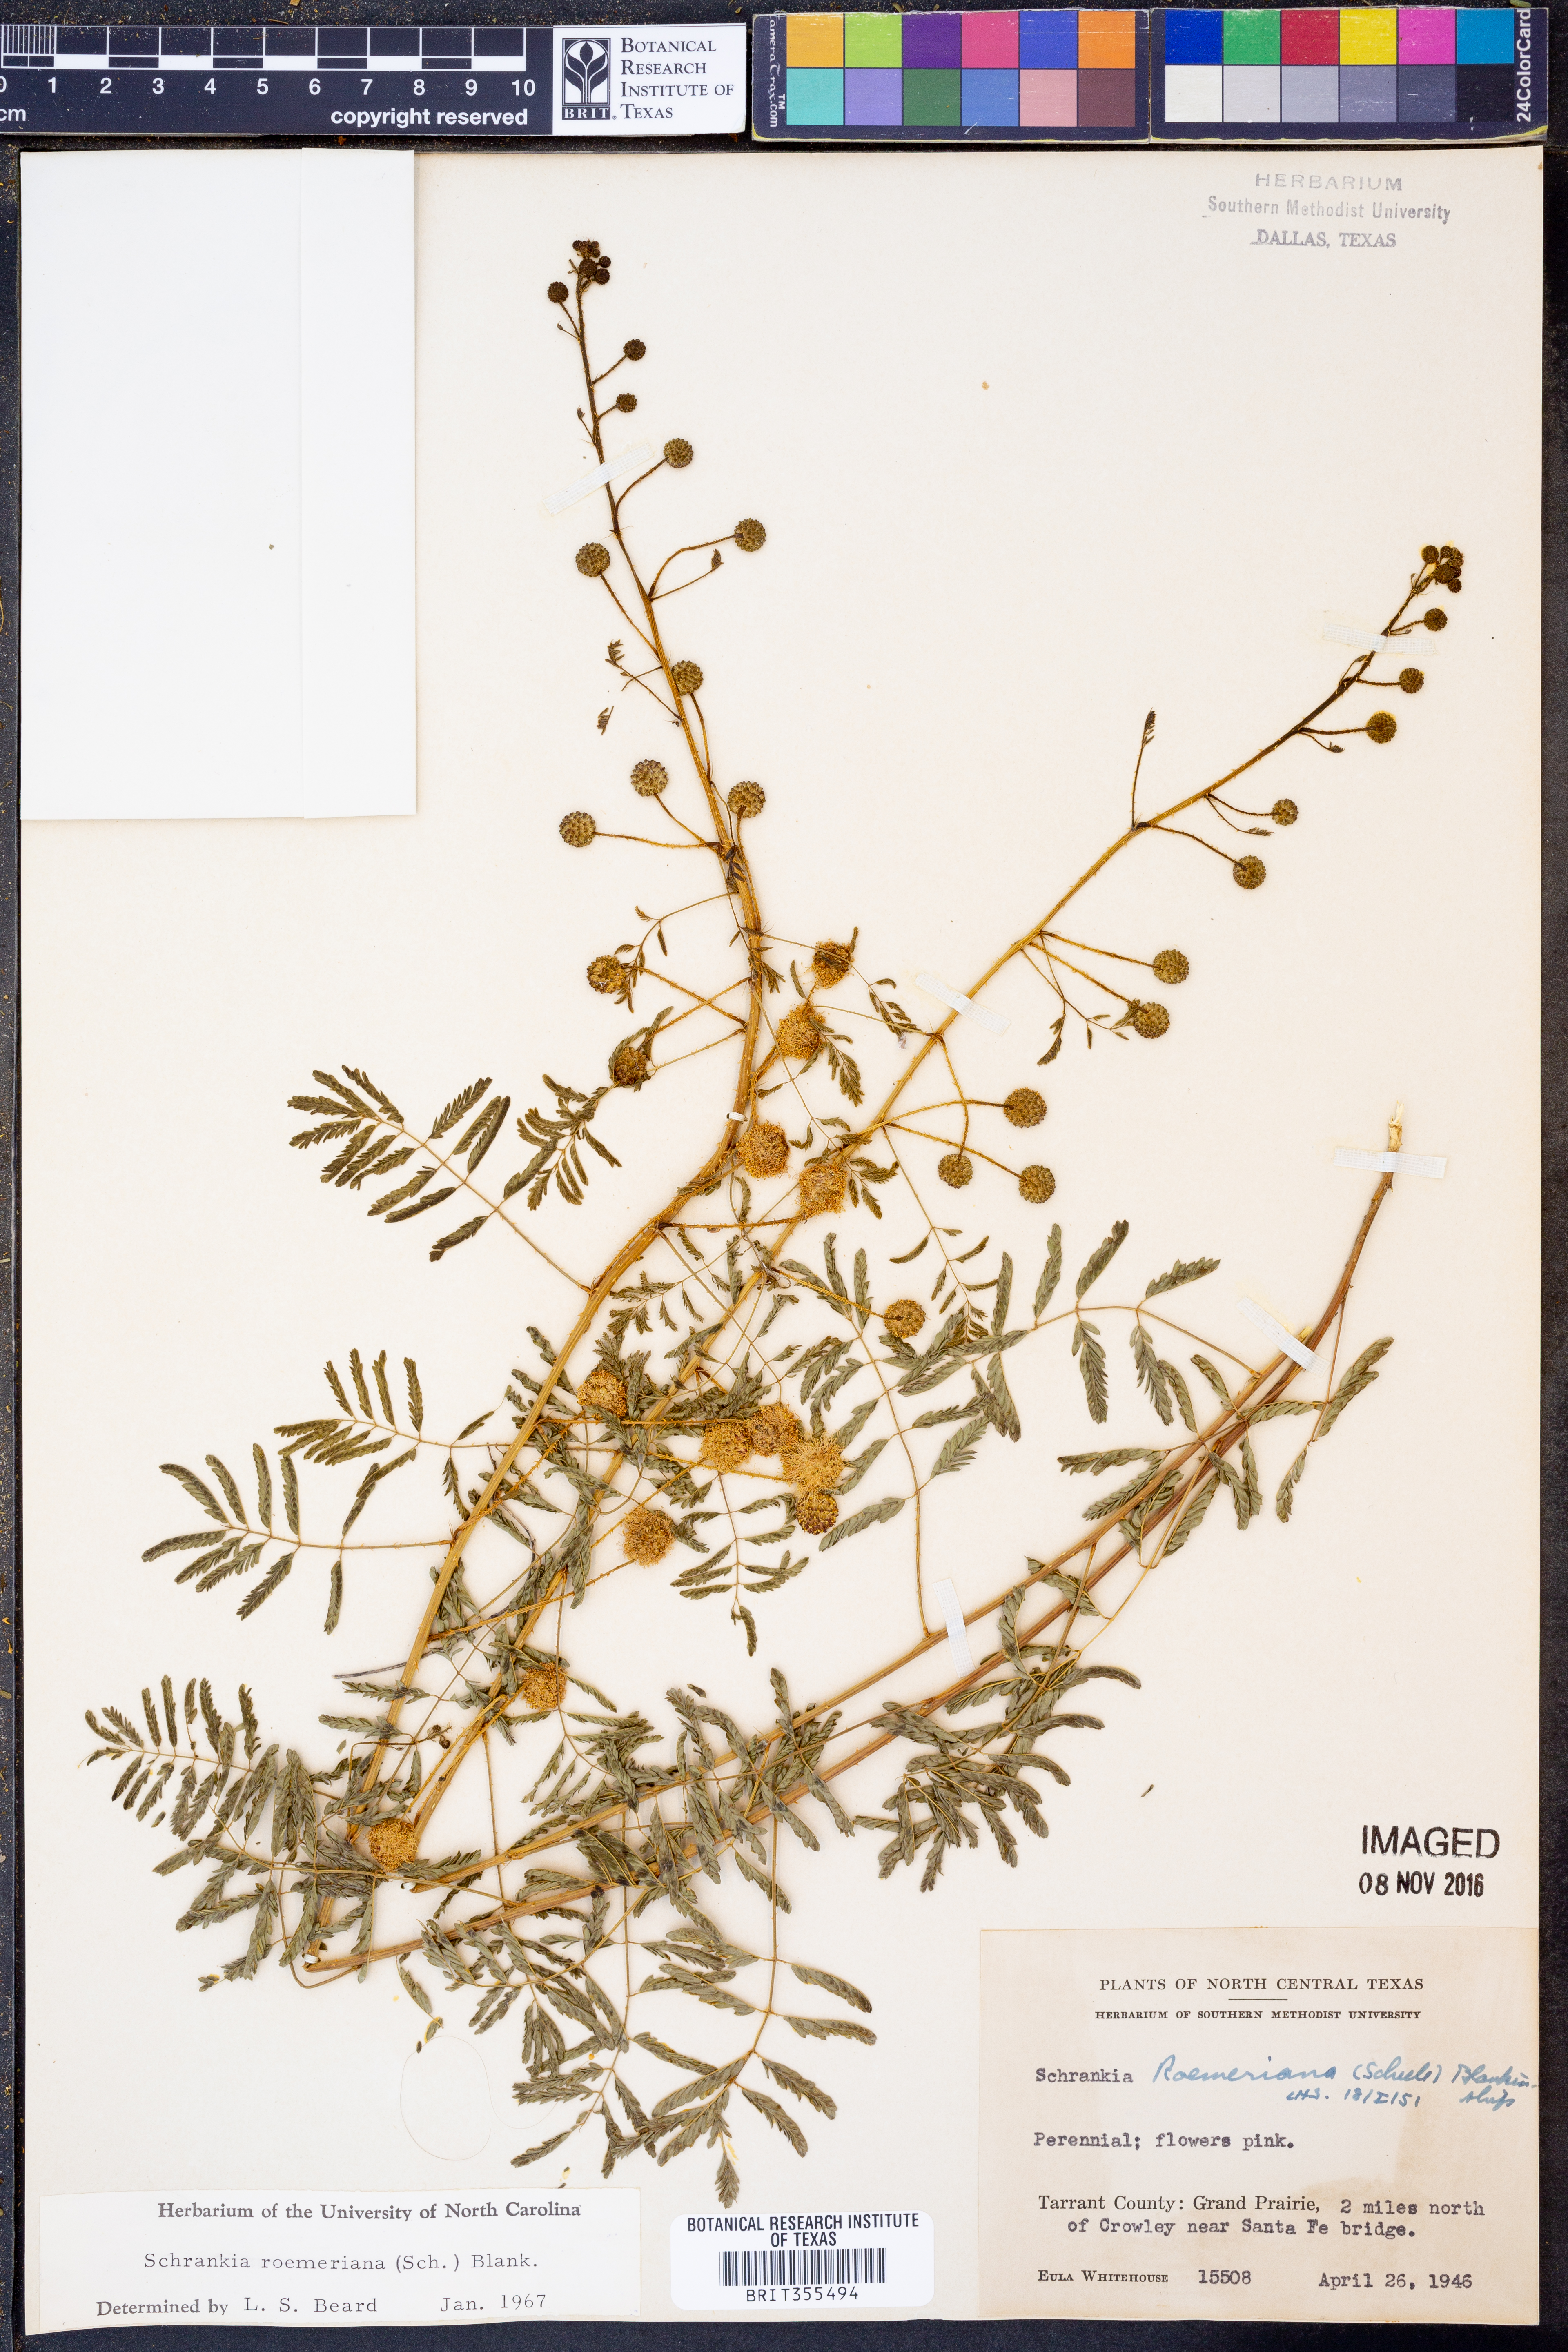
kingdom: Plantae
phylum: Tracheophyta
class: Magnoliopsida
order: Fabales
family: Fabaceae
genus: Mimosa
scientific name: Mimosa quadrivalvis
